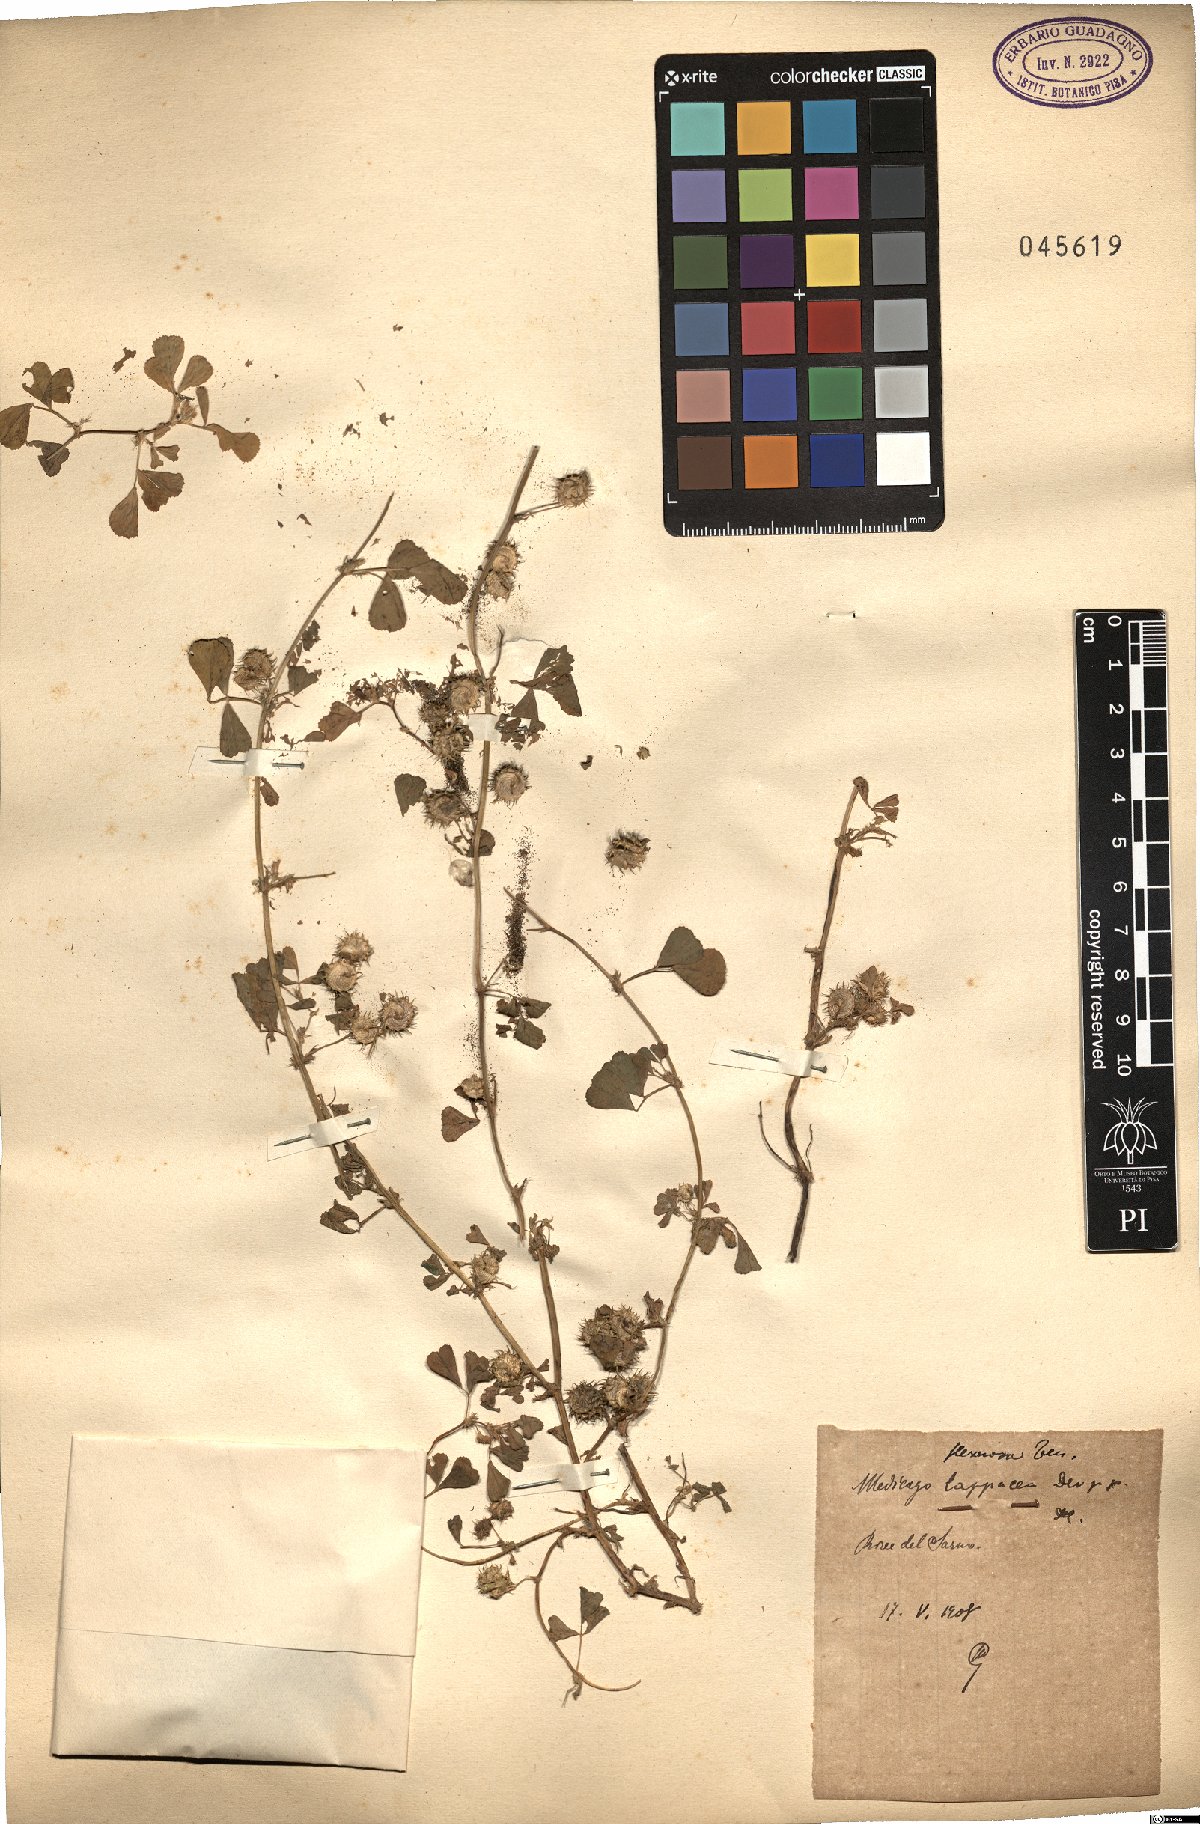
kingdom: Plantae
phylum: Tracheophyta
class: Magnoliopsida
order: Fabales
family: Fabaceae
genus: Medicago
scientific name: Medicago polymorpha
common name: Burclover
